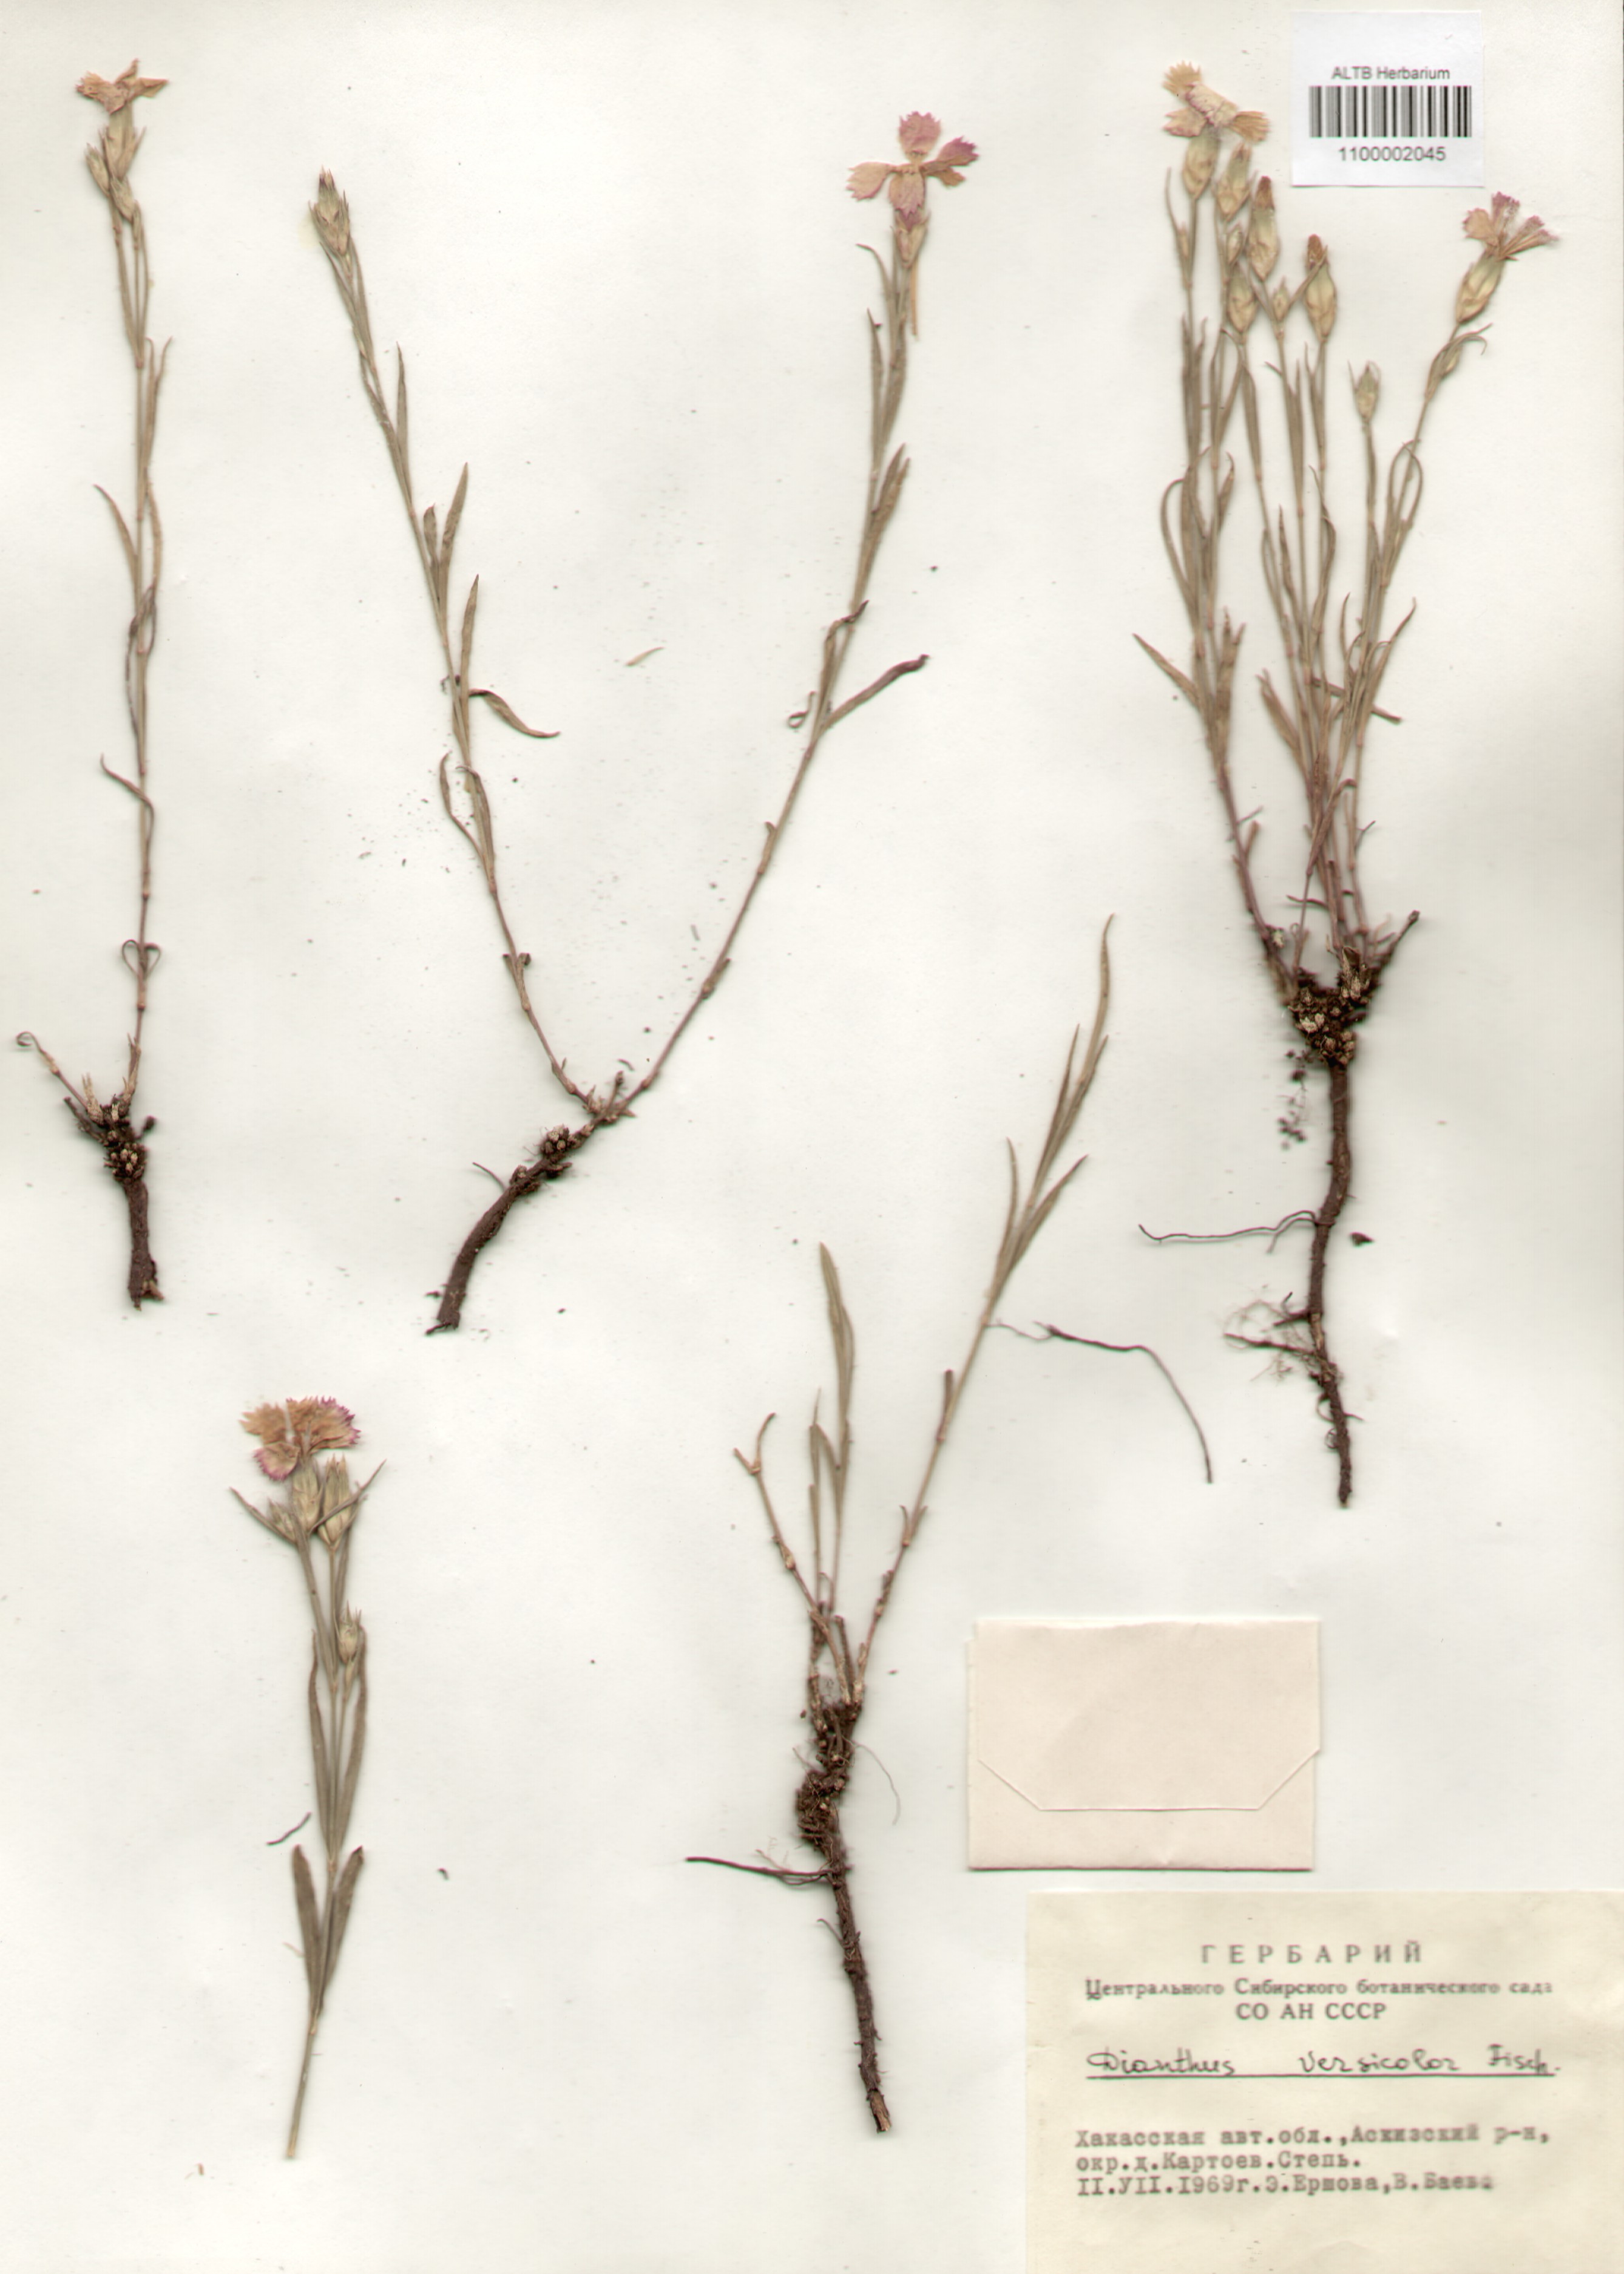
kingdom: Plantae
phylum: Tracheophyta
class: Magnoliopsida
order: Caryophyllales
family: Caryophyllaceae
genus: Dianthus
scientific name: Dianthus chinensis
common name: Rainbow pink
